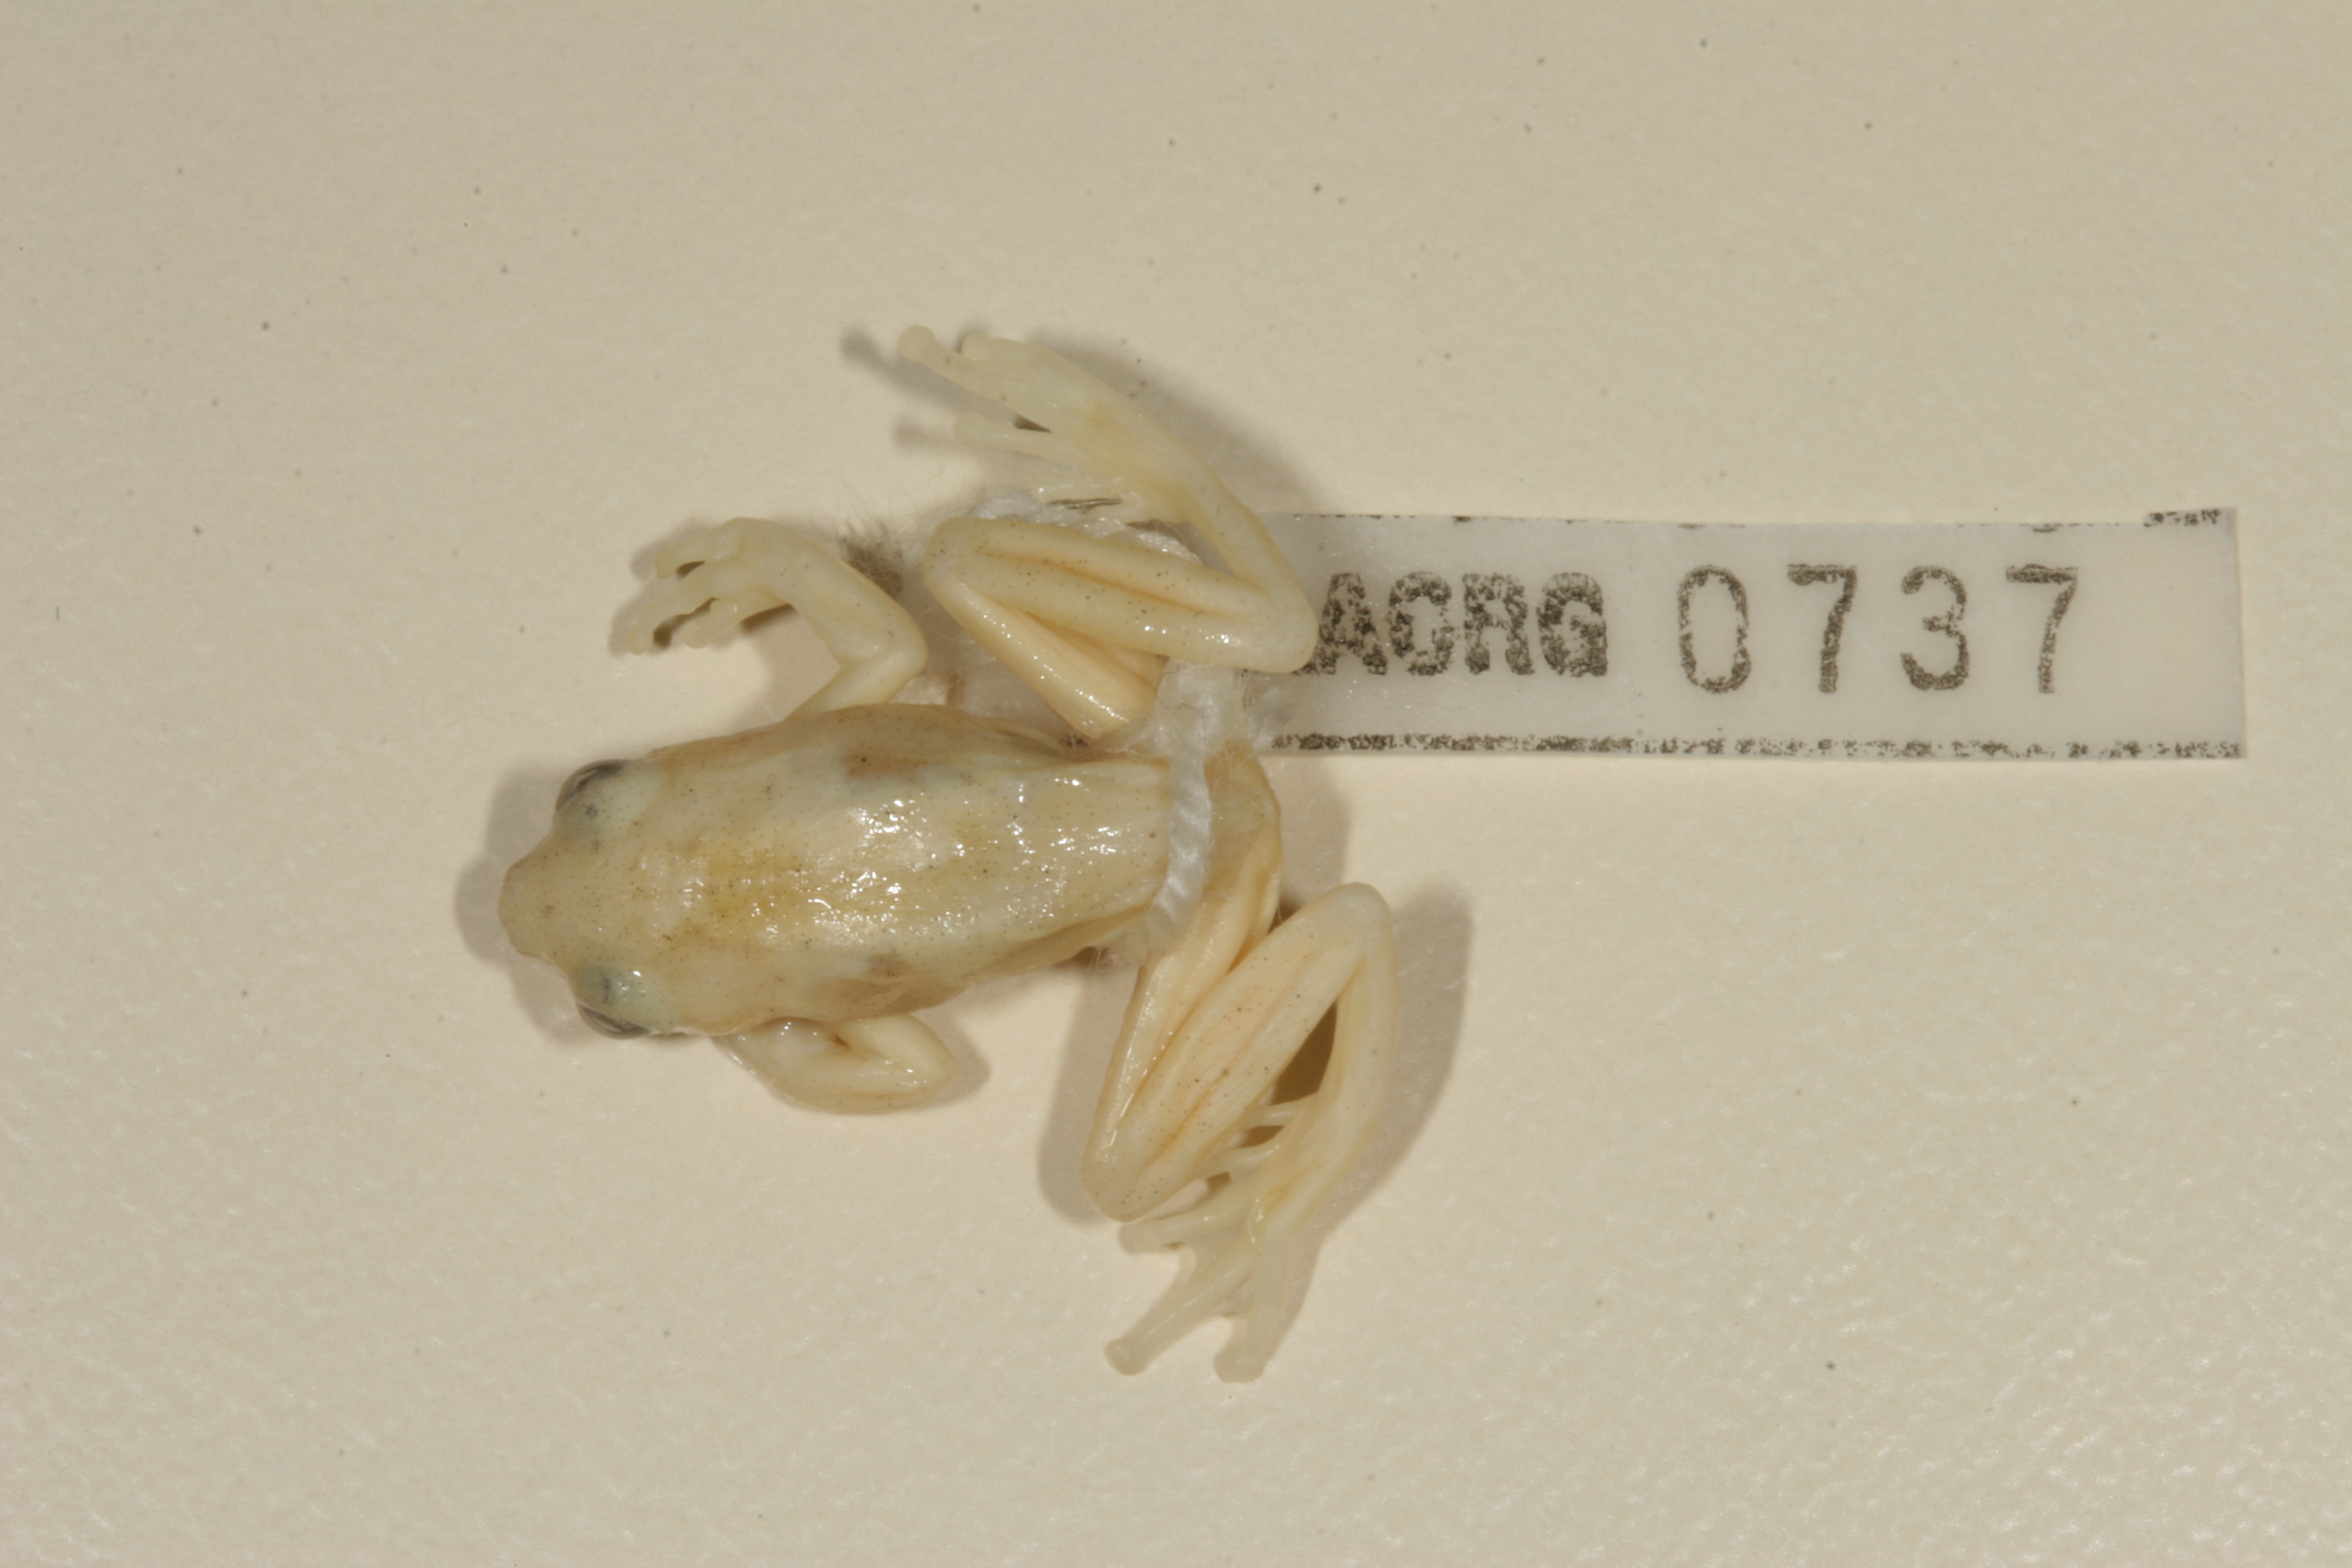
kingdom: Animalia
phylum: Chordata
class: Amphibia
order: Anura
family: Hyperoliidae
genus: Hyperolius
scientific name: Hyperolius marmoratus
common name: Painted reed frog
